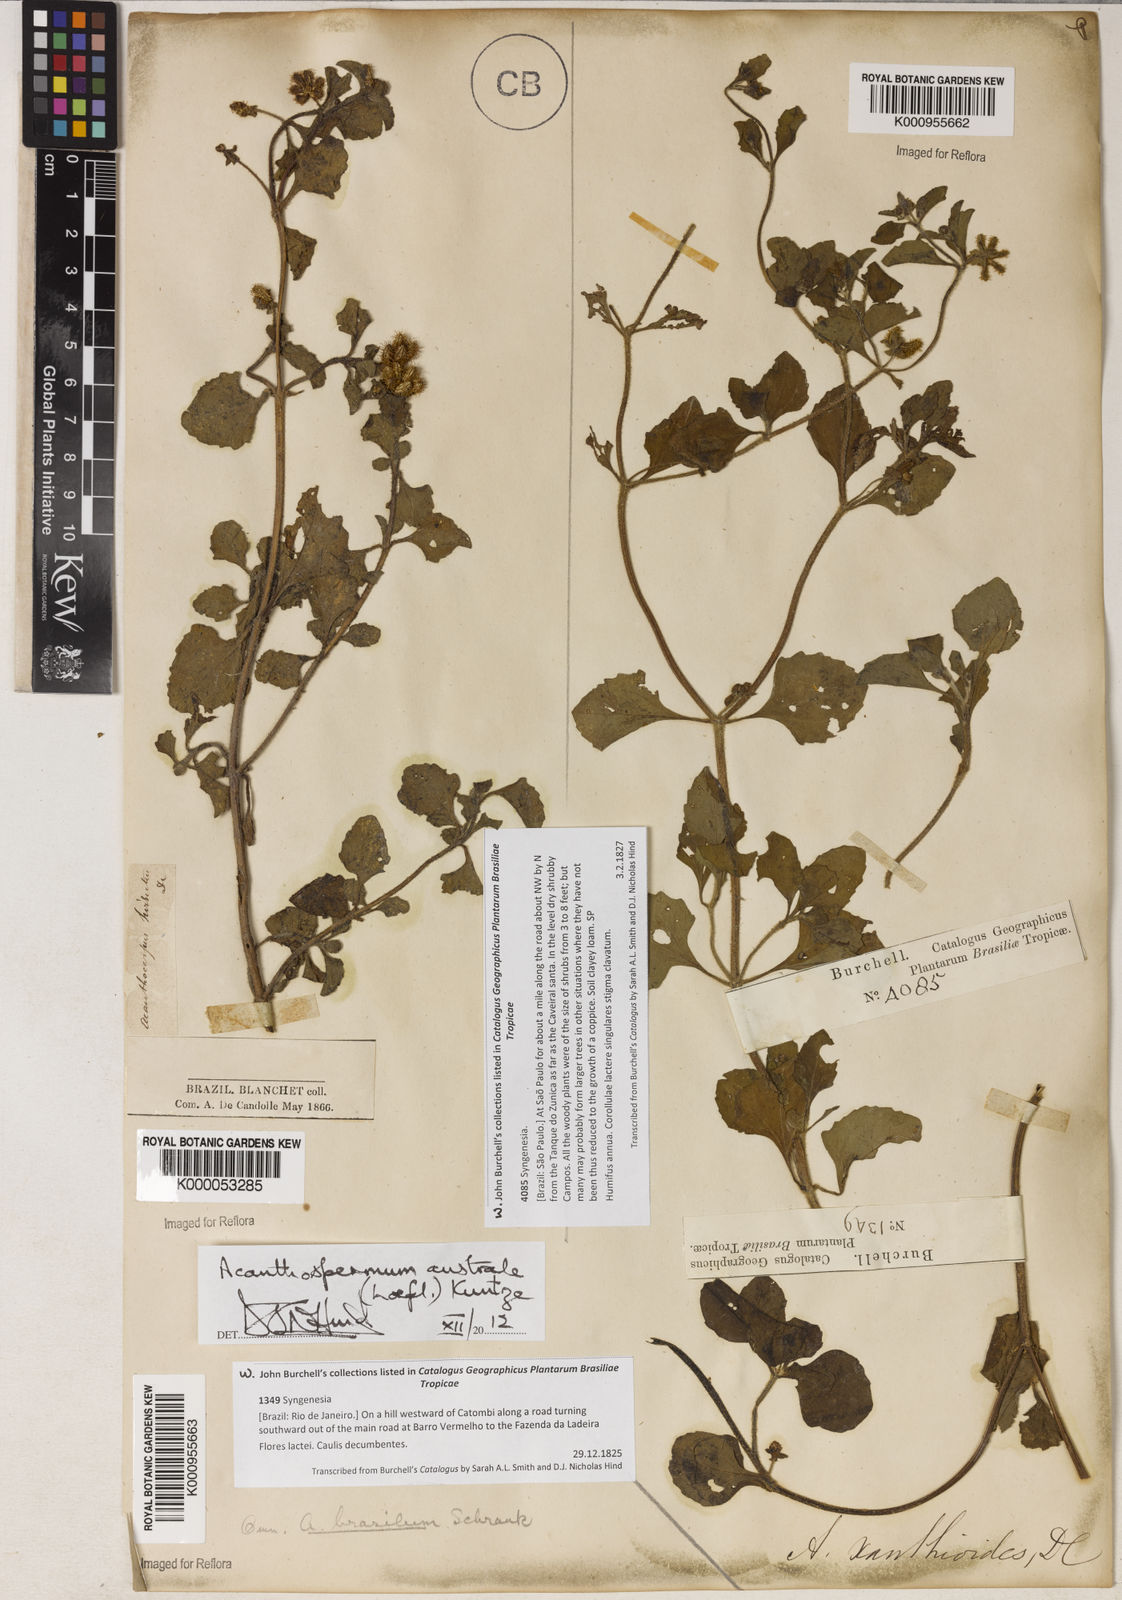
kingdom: Plantae
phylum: Tracheophyta
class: Magnoliopsida
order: Asterales
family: Asteraceae
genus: Acanthospermum
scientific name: Acanthospermum australe
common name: Paraguayan starbur
